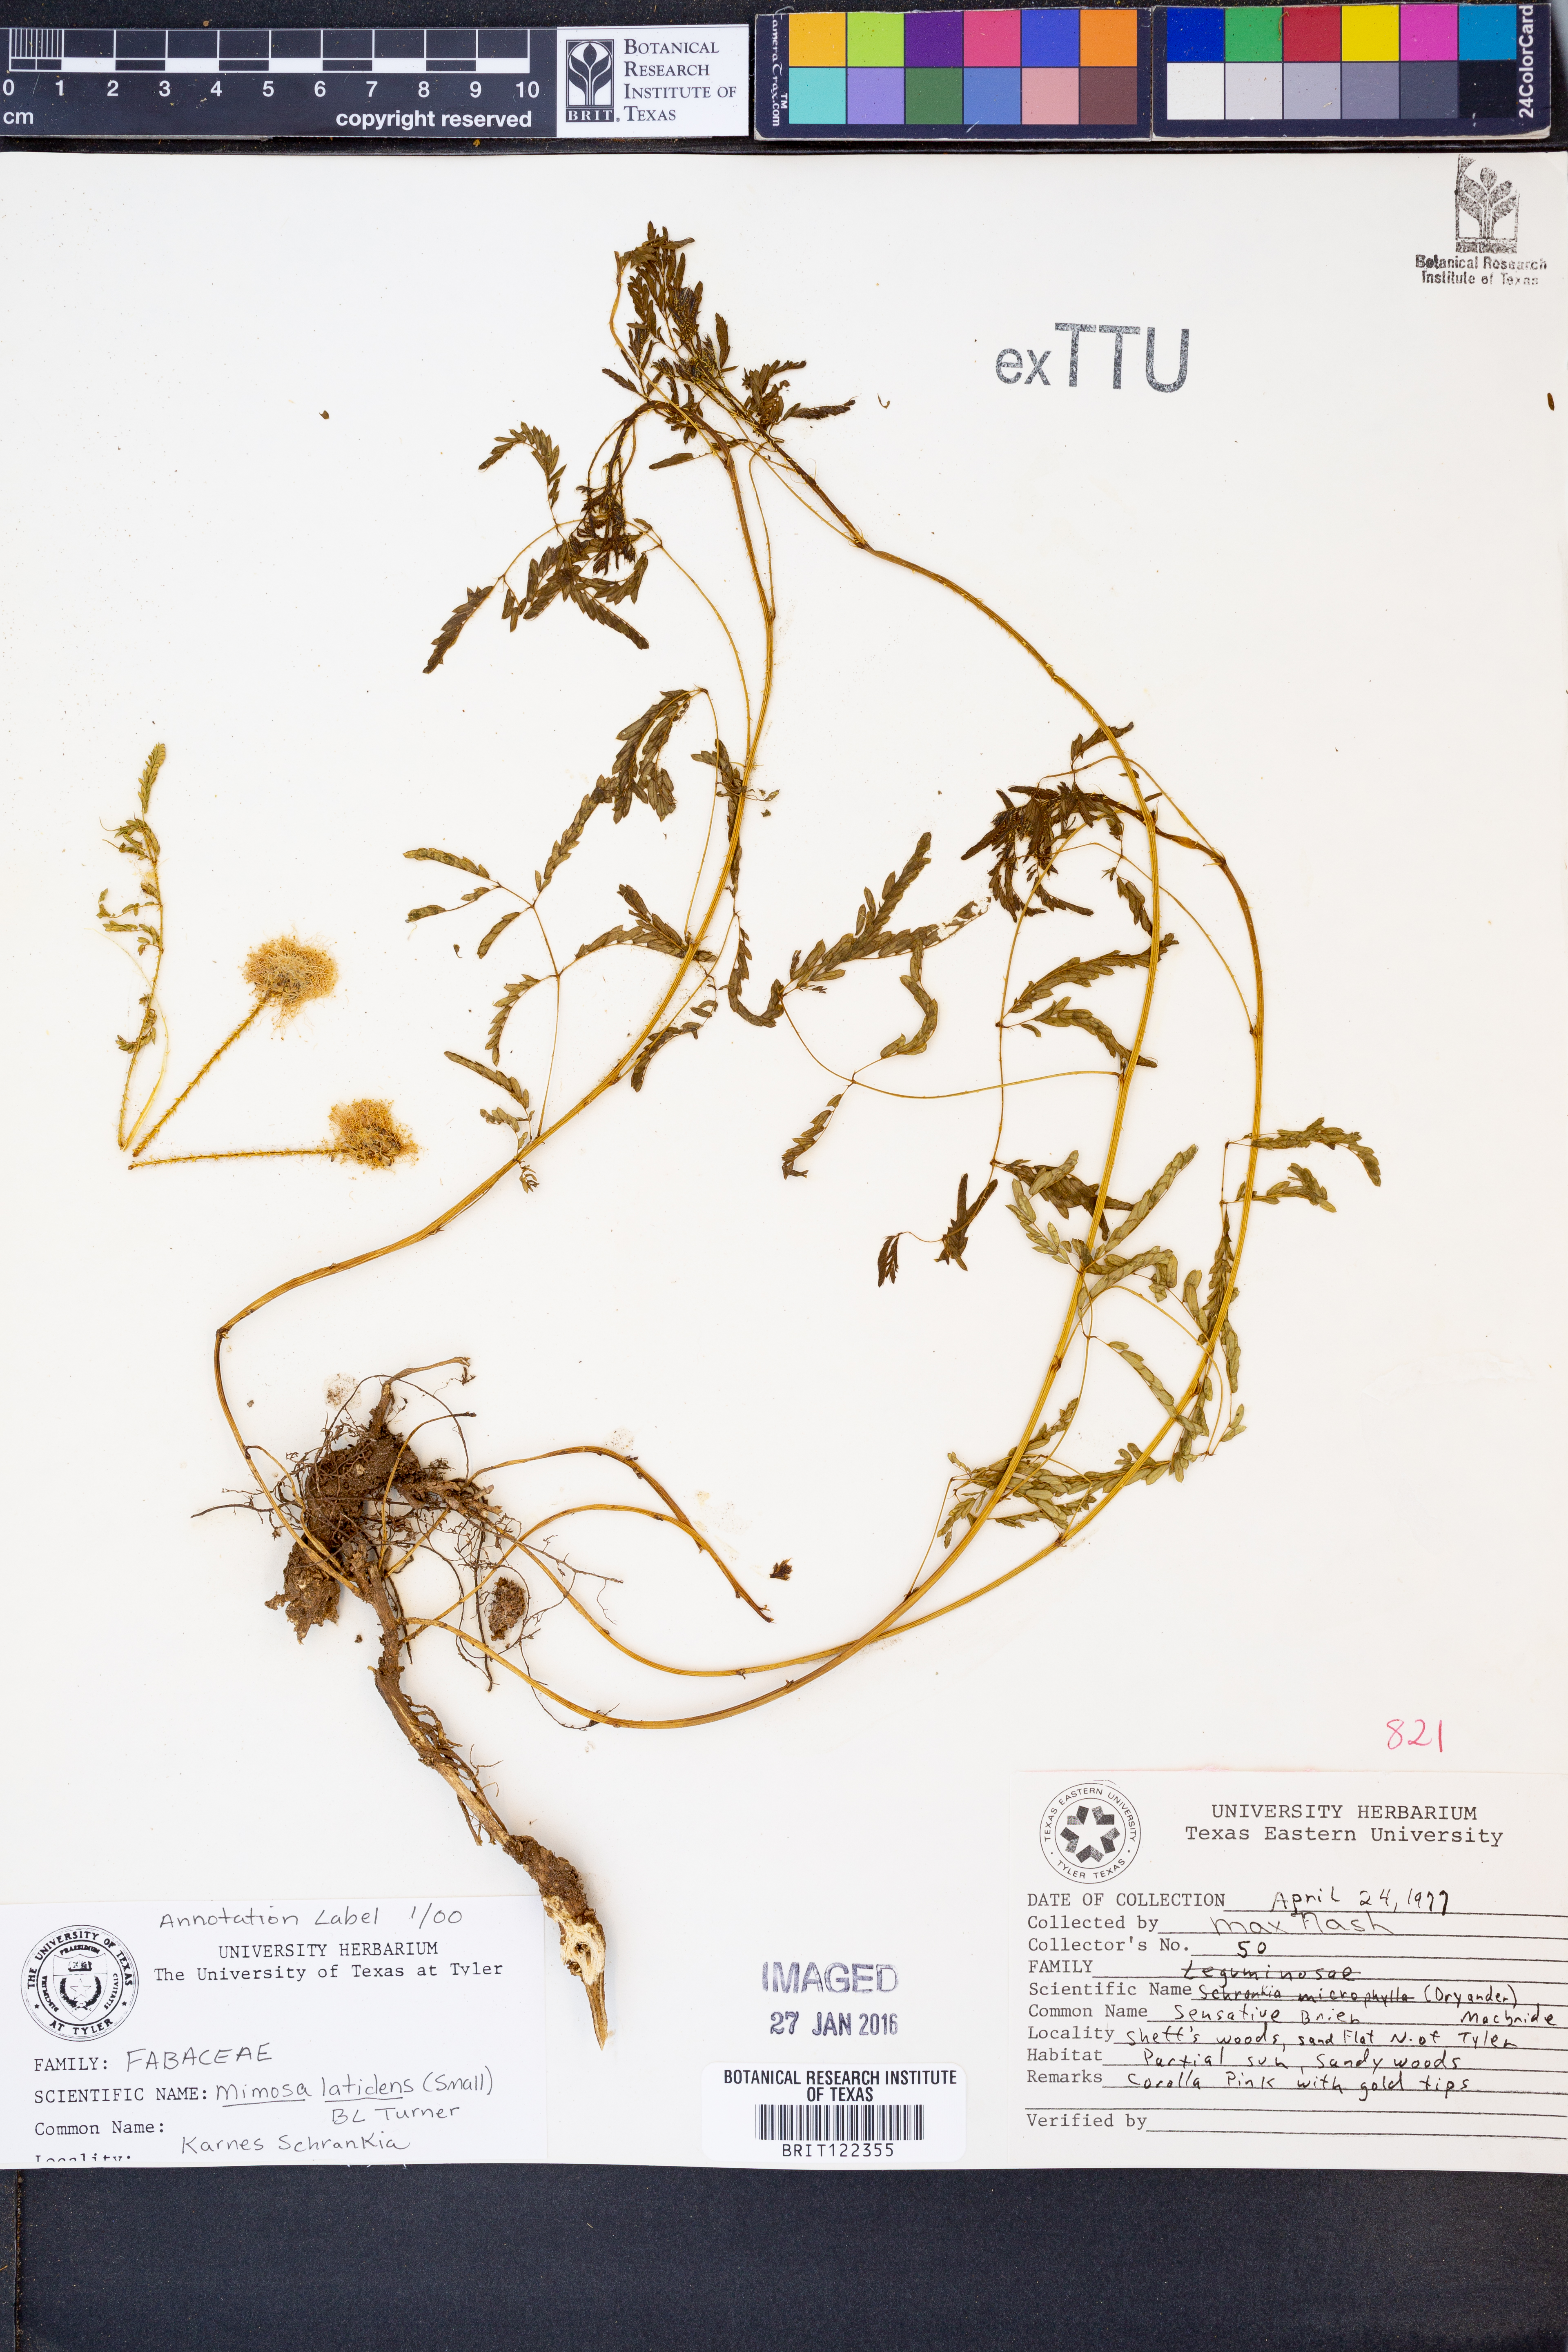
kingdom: Plantae
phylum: Tracheophyta
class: Magnoliopsida
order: Fabales
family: Fabaceae
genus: Mimosa
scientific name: Mimosa latidens
